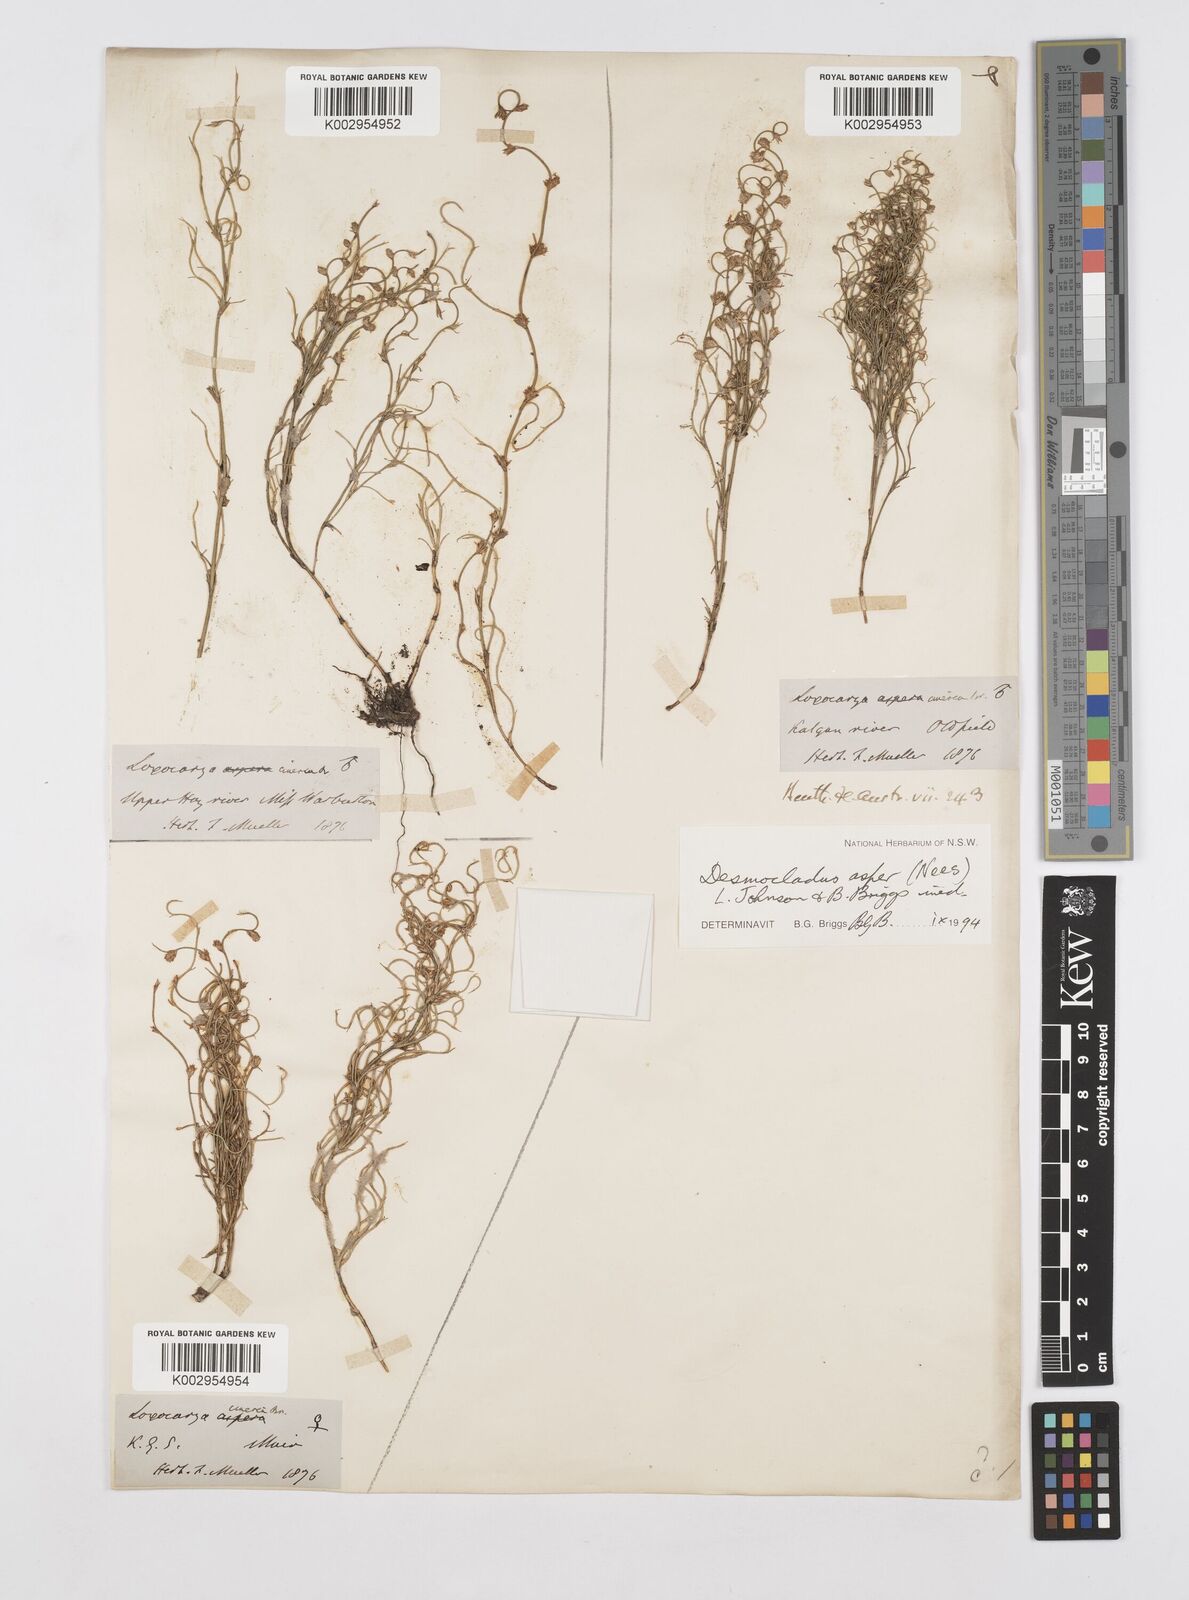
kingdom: Plantae
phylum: Tracheophyta
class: Liliopsida
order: Poales
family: Restionaceae
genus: Desmocladus
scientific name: Desmocladus asper
